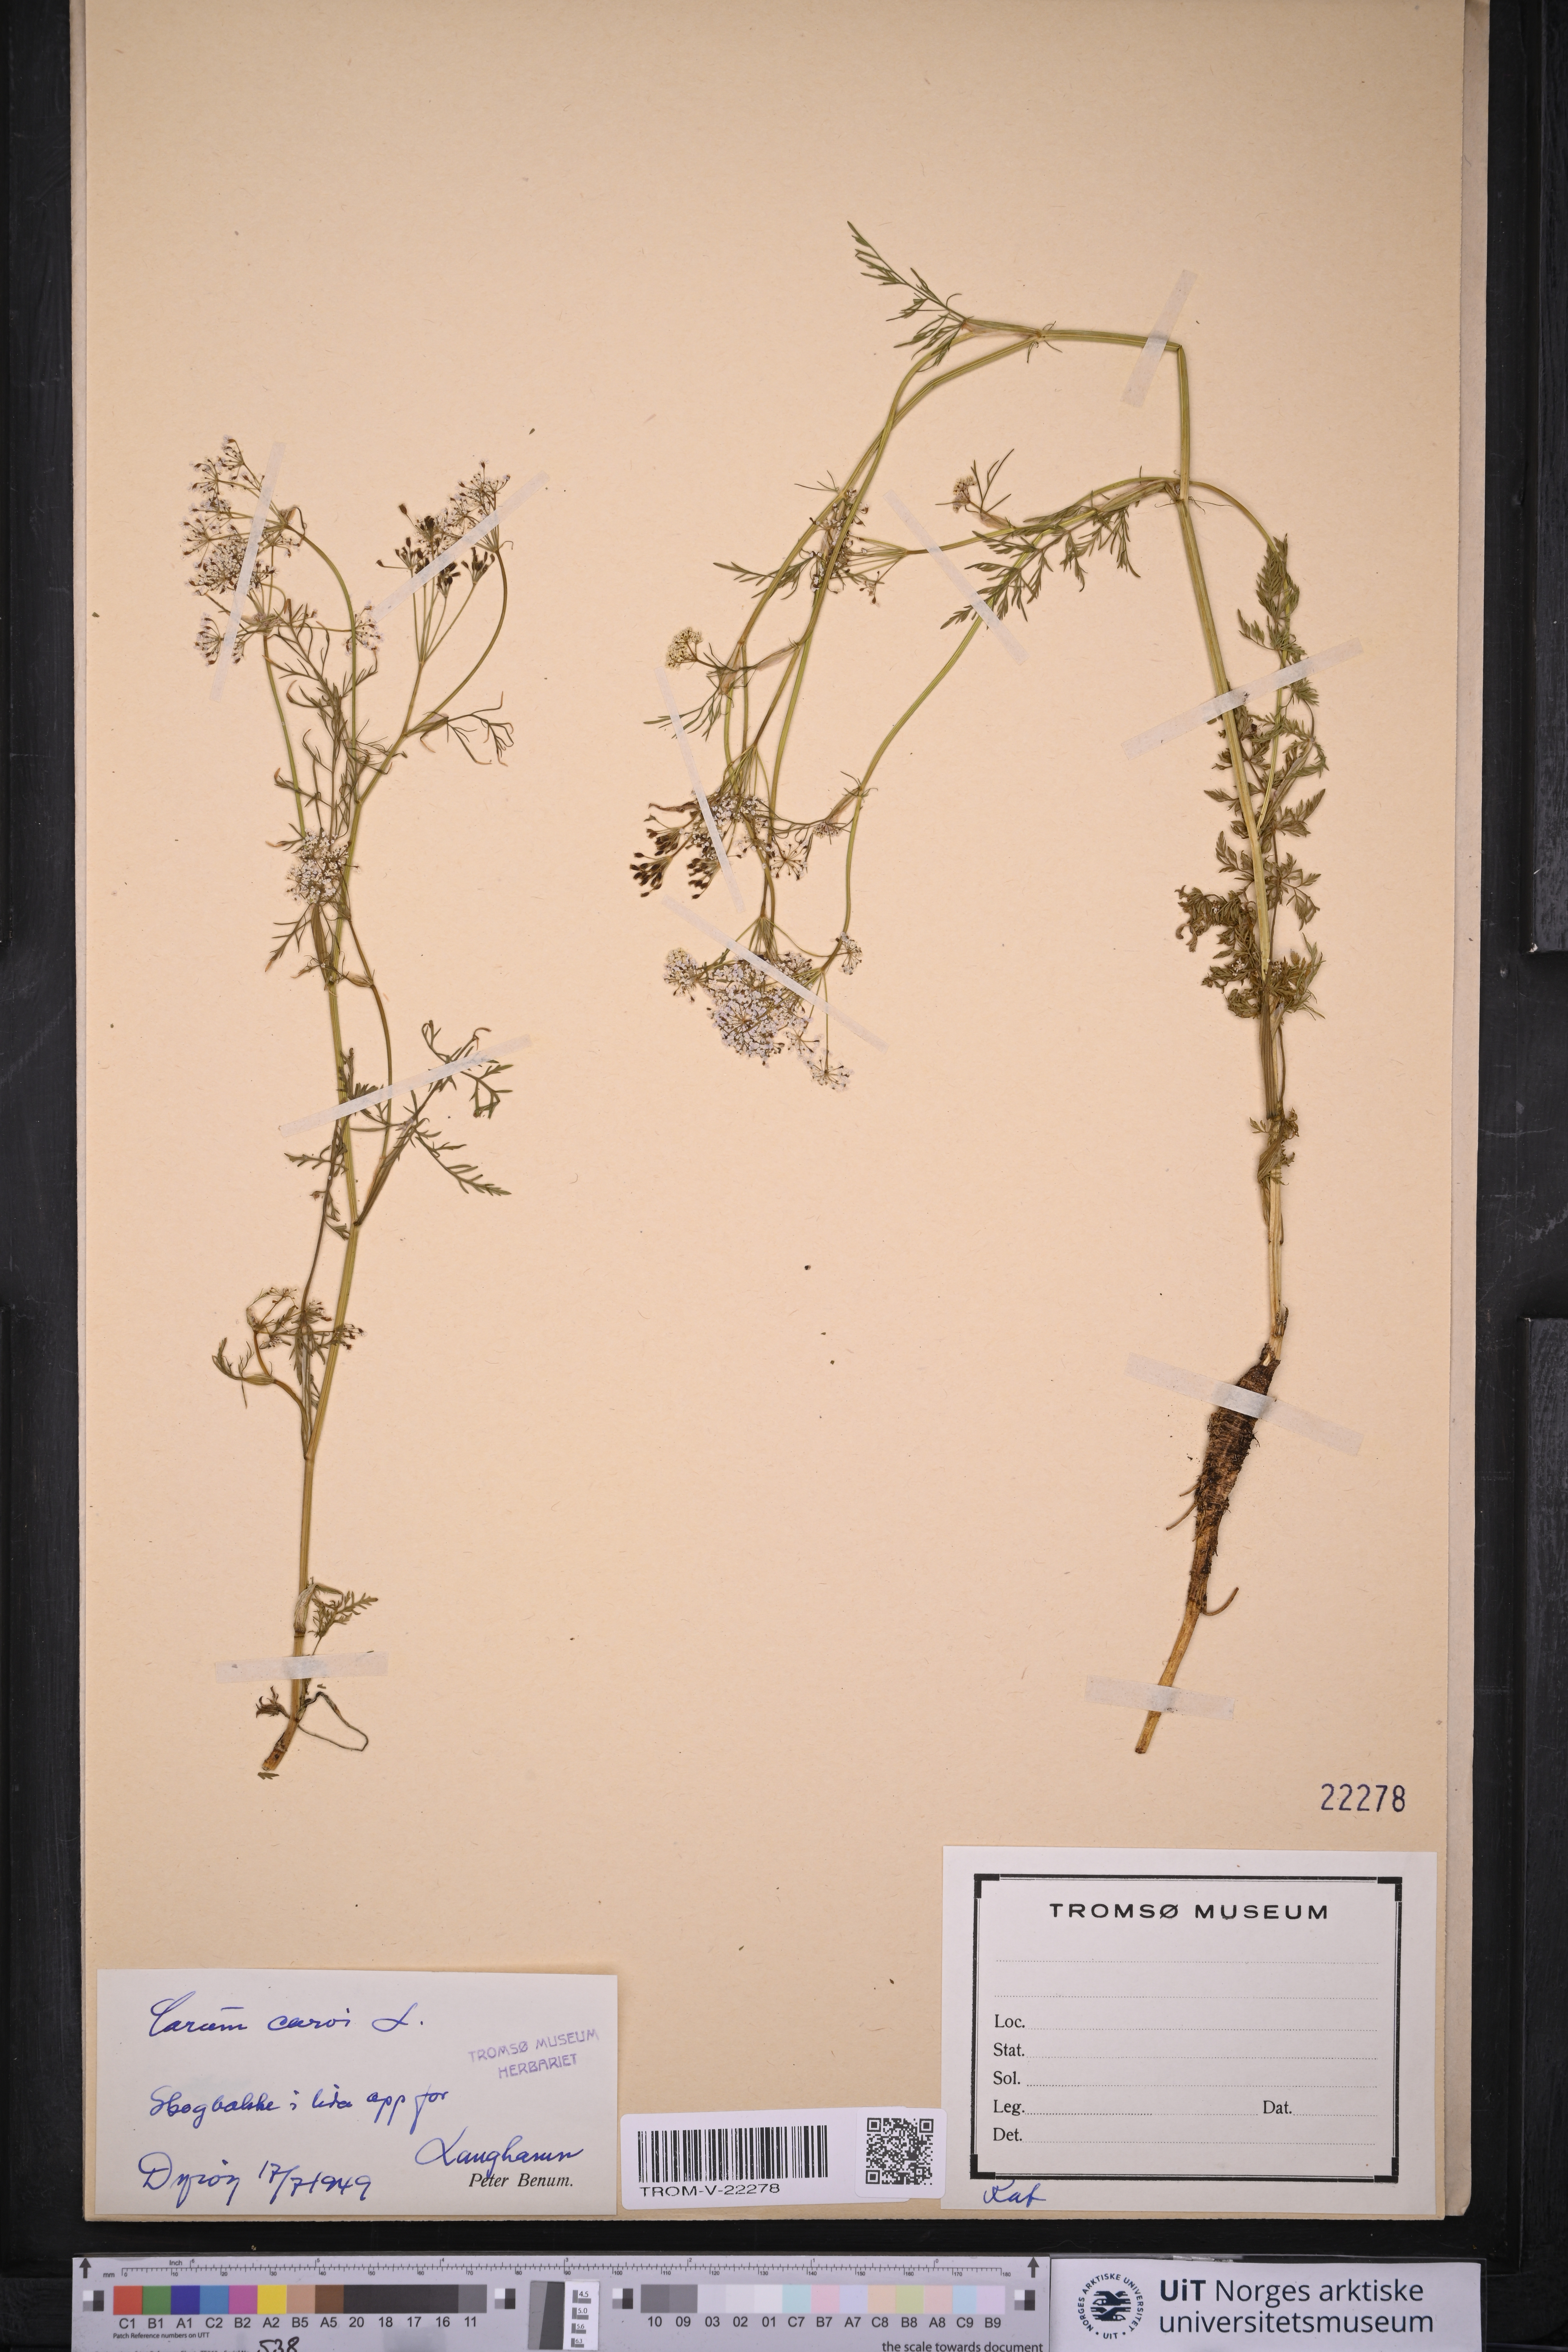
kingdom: Plantae
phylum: Tracheophyta
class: Magnoliopsida
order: Apiales
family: Apiaceae
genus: Carum
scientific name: Carum carvi
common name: Caraway
